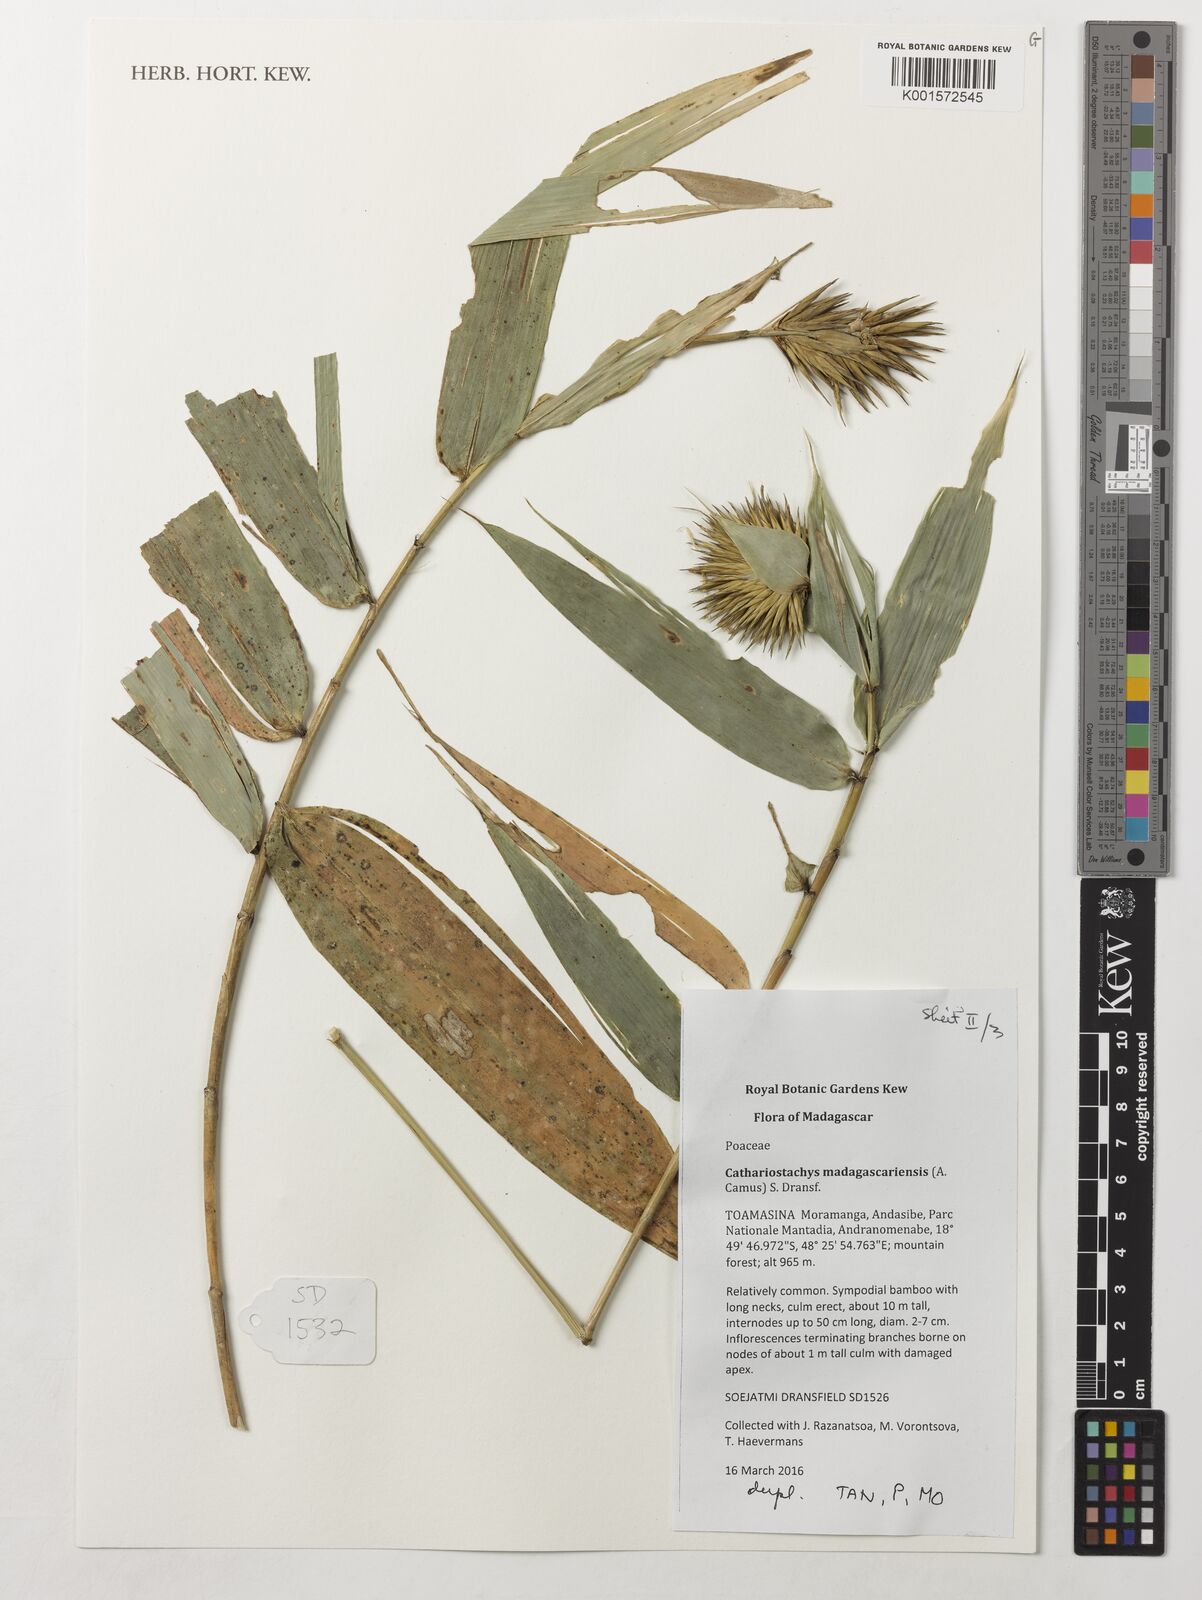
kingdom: Plantae
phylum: Tracheophyta
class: Liliopsida
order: Poales
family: Poaceae
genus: Cathariostachys
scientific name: Cathariostachys madagascariensis
